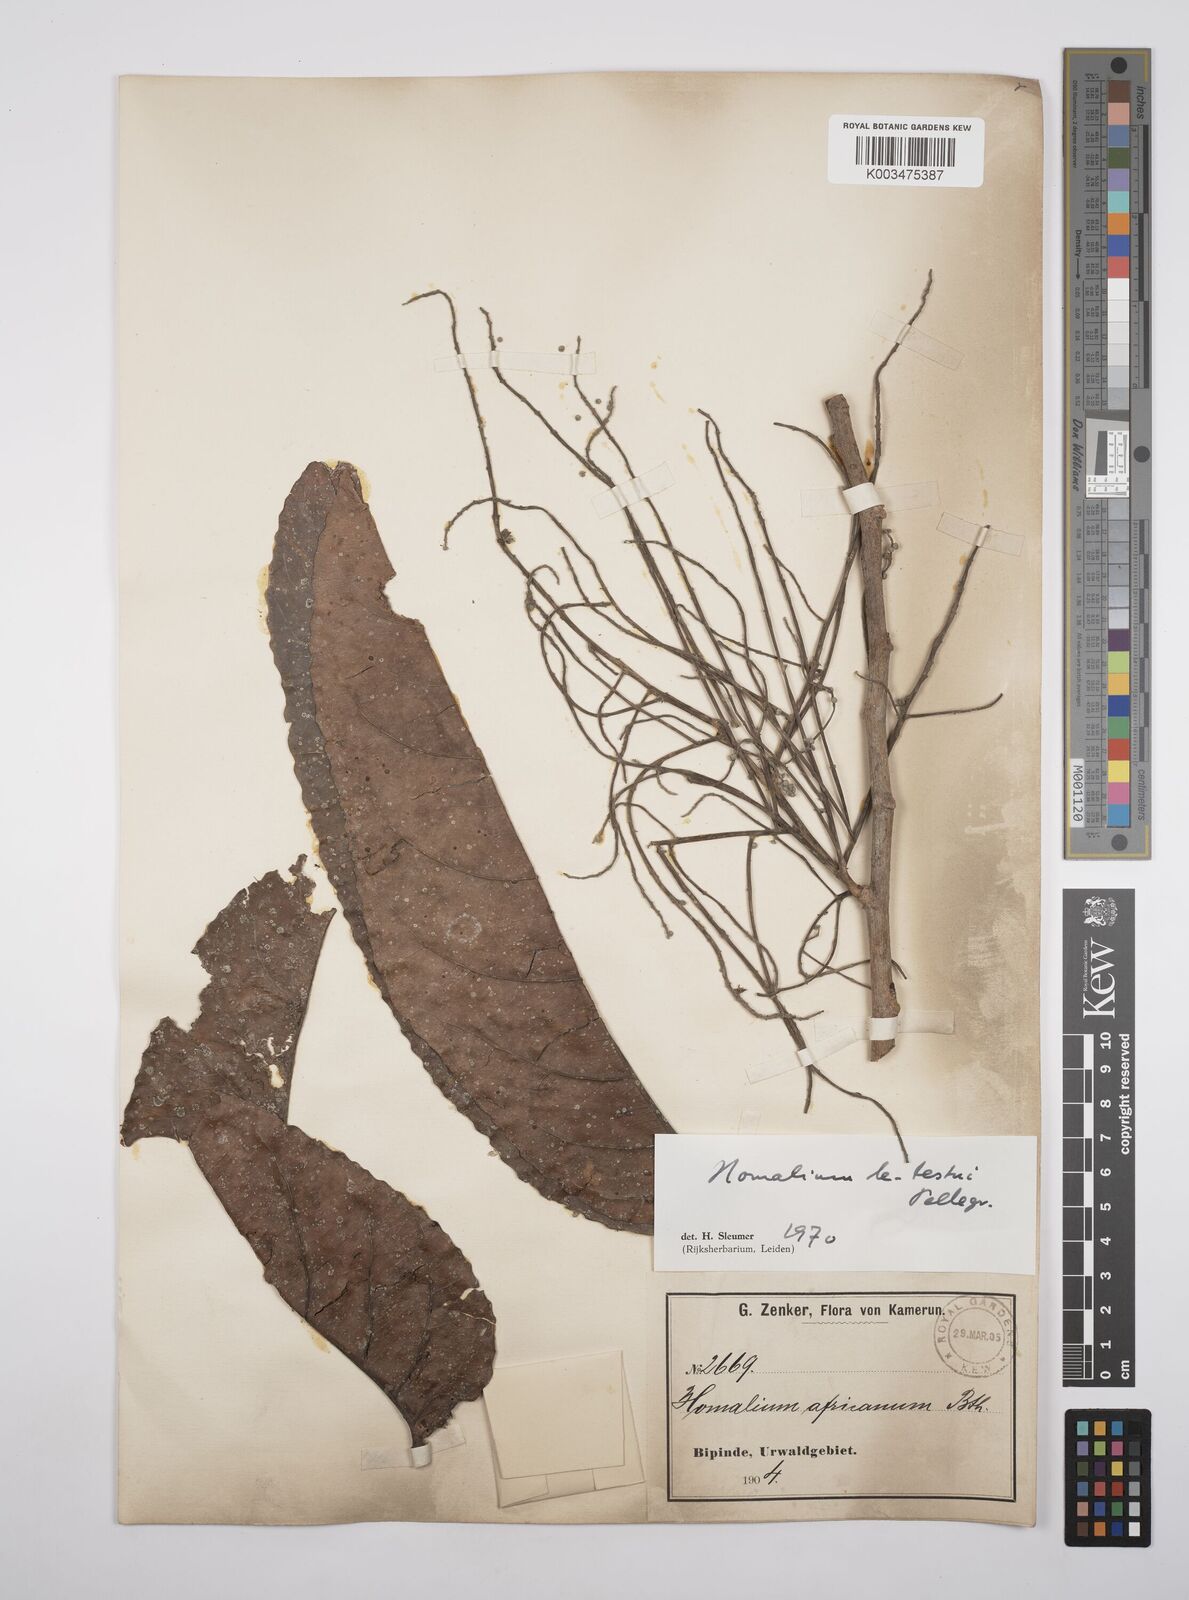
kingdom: Plantae
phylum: Tracheophyta
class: Magnoliopsida
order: Malpighiales
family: Salicaceae
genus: Homalium
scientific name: Homalium letestui
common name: African homalium
